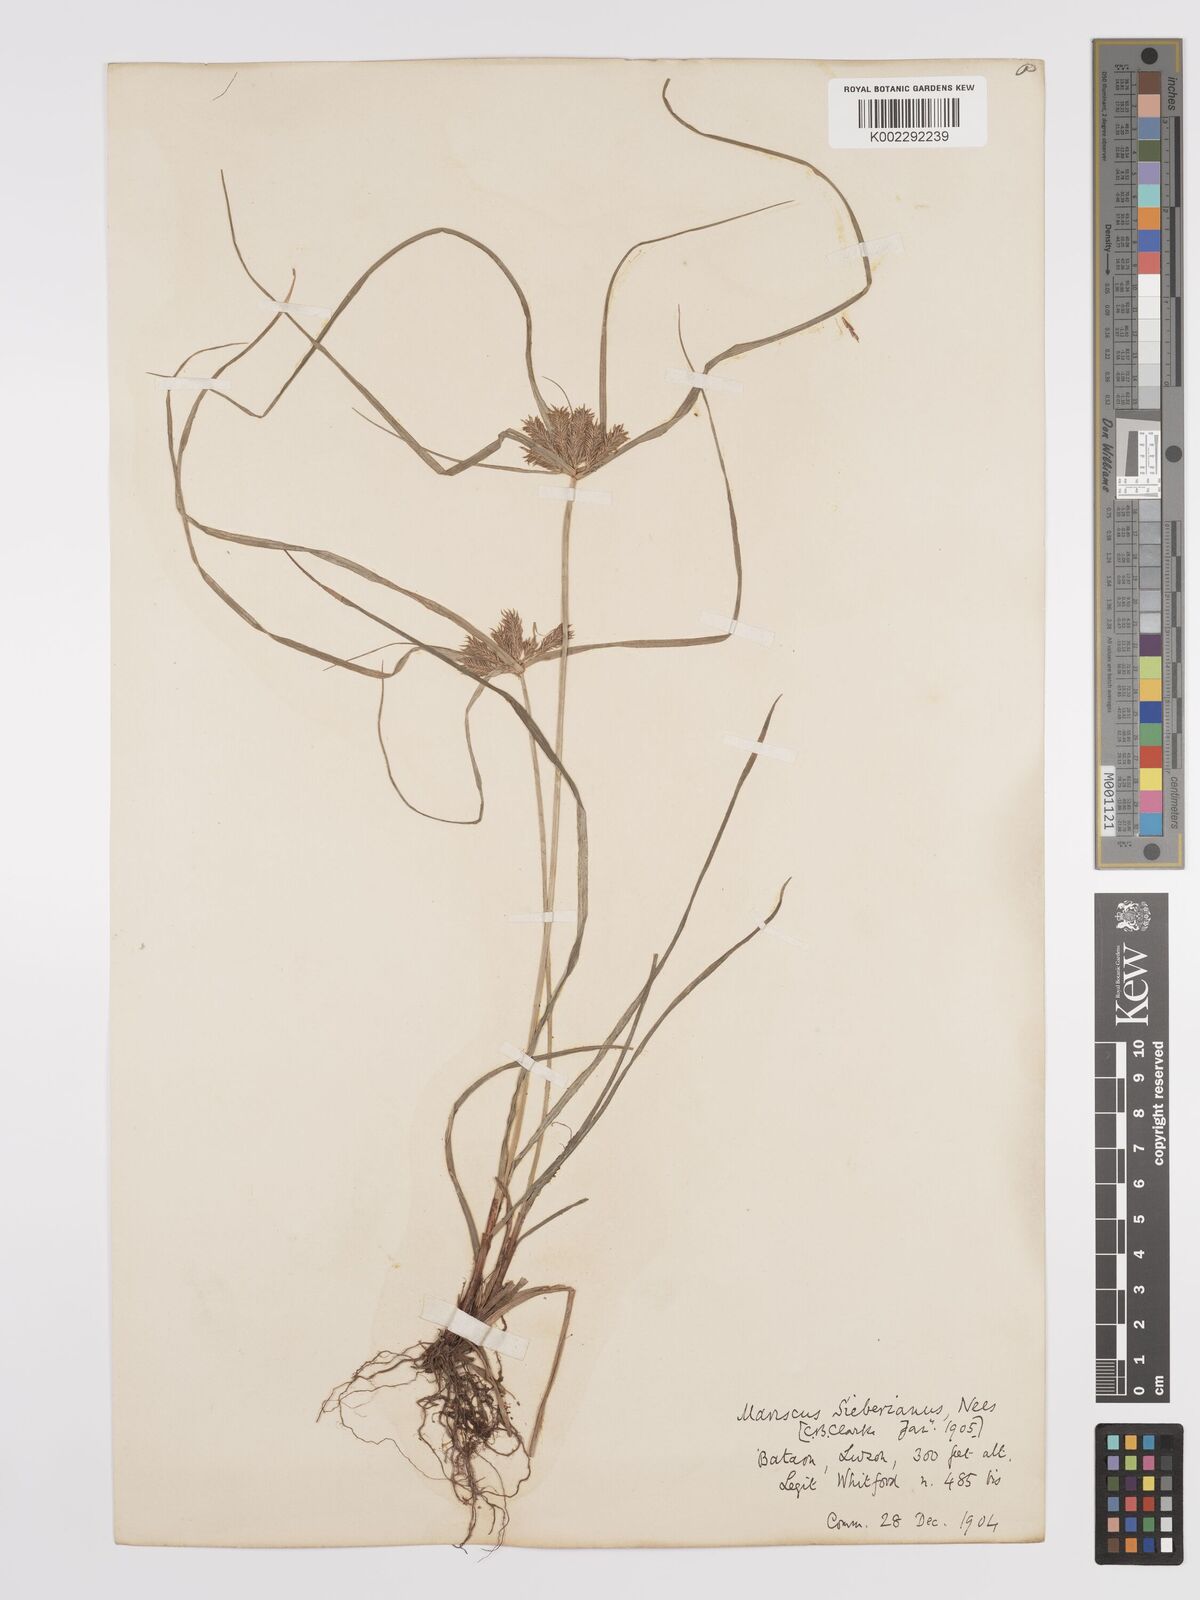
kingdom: Plantae
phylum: Tracheophyta
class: Liliopsida
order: Poales
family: Cyperaceae
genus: Cyperus
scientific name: Cyperus cyperoides
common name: Pacific island flat sedge
